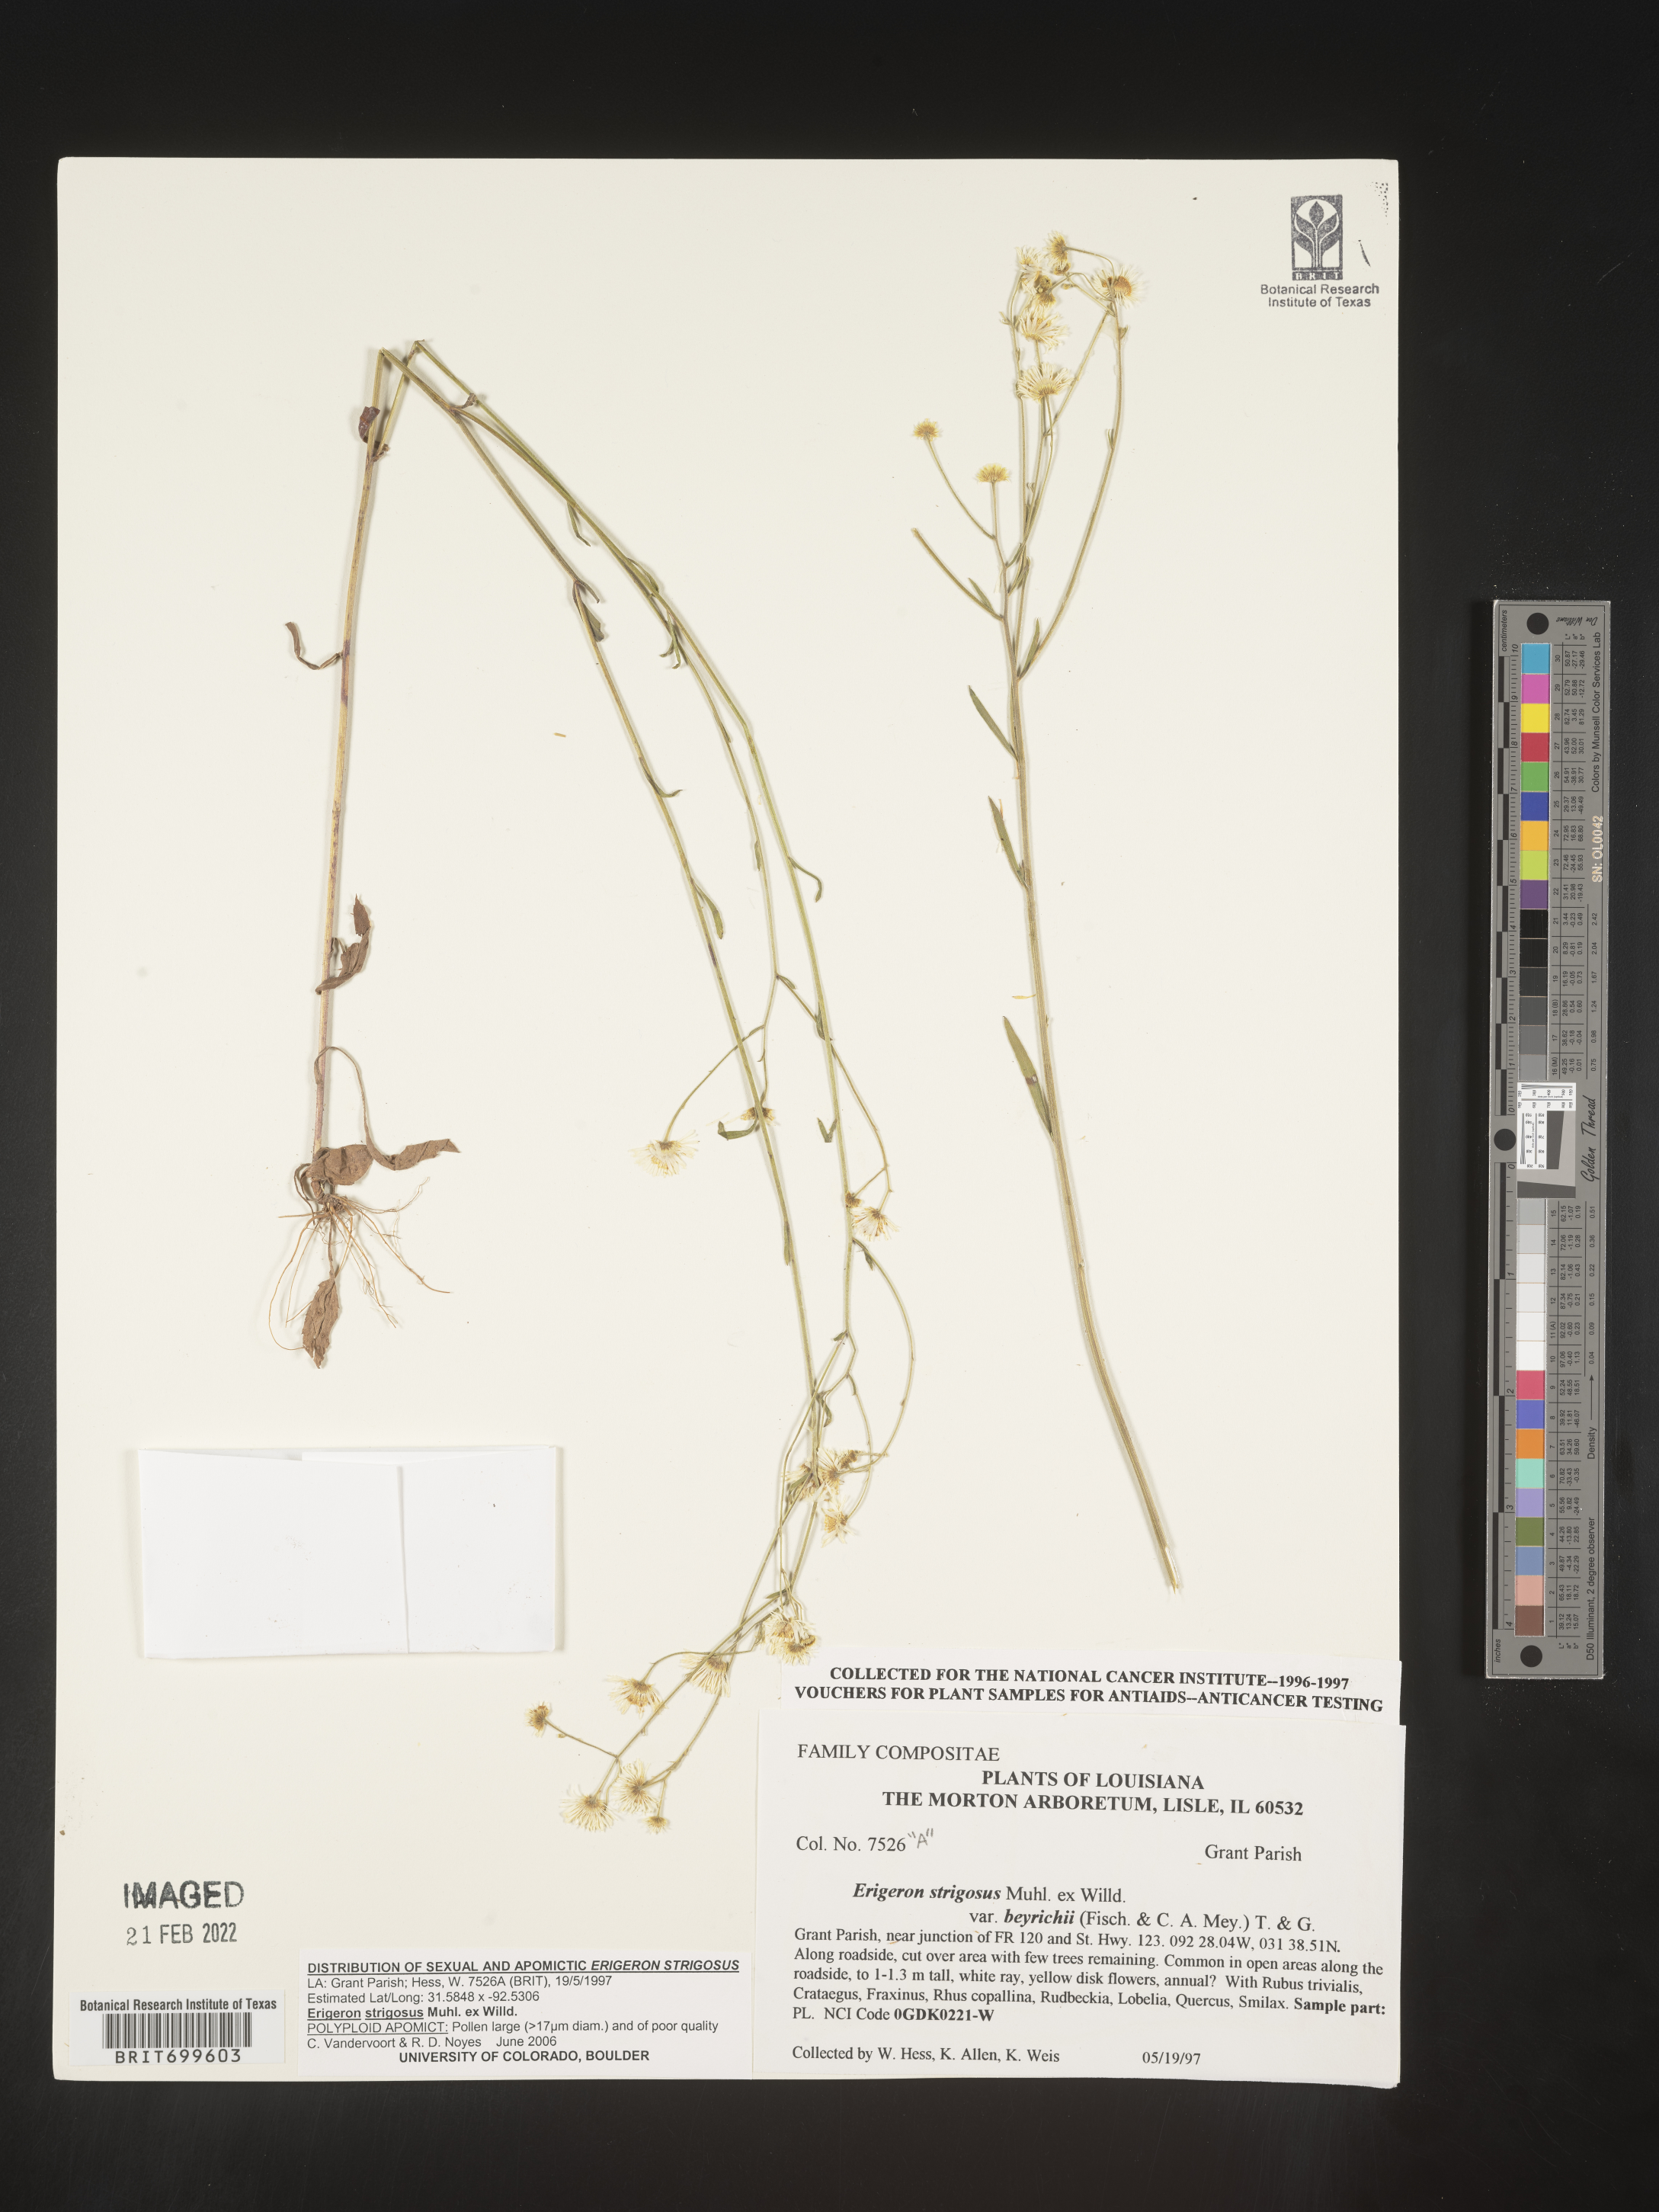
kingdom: Plantae
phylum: Tracheophyta
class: Magnoliopsida
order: Asterales
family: Asteraceae
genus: Erigeron
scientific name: Erigeron strigosus
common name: Common eastern fleabane
